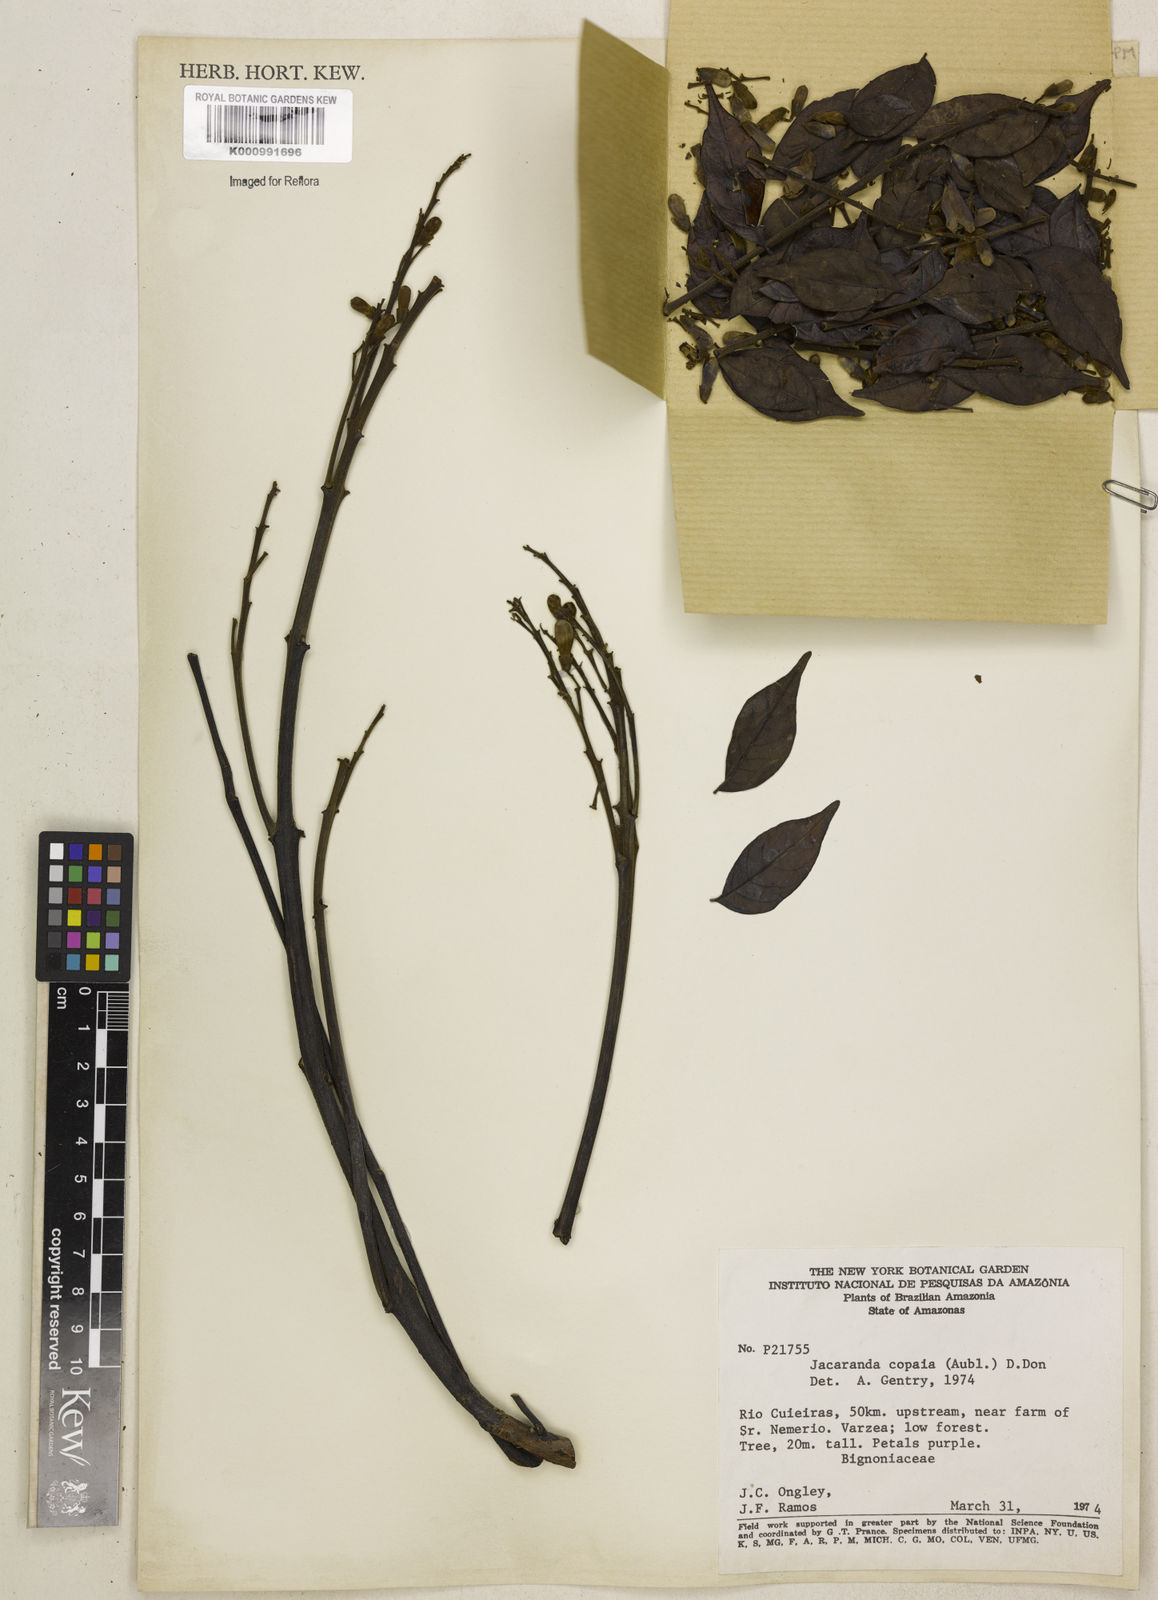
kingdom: Plantae
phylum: Tracheophyta
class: Magnoliopsida
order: Lamiales
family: Bignoniaceae
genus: Jacaranda
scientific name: Jacaranda copaia
